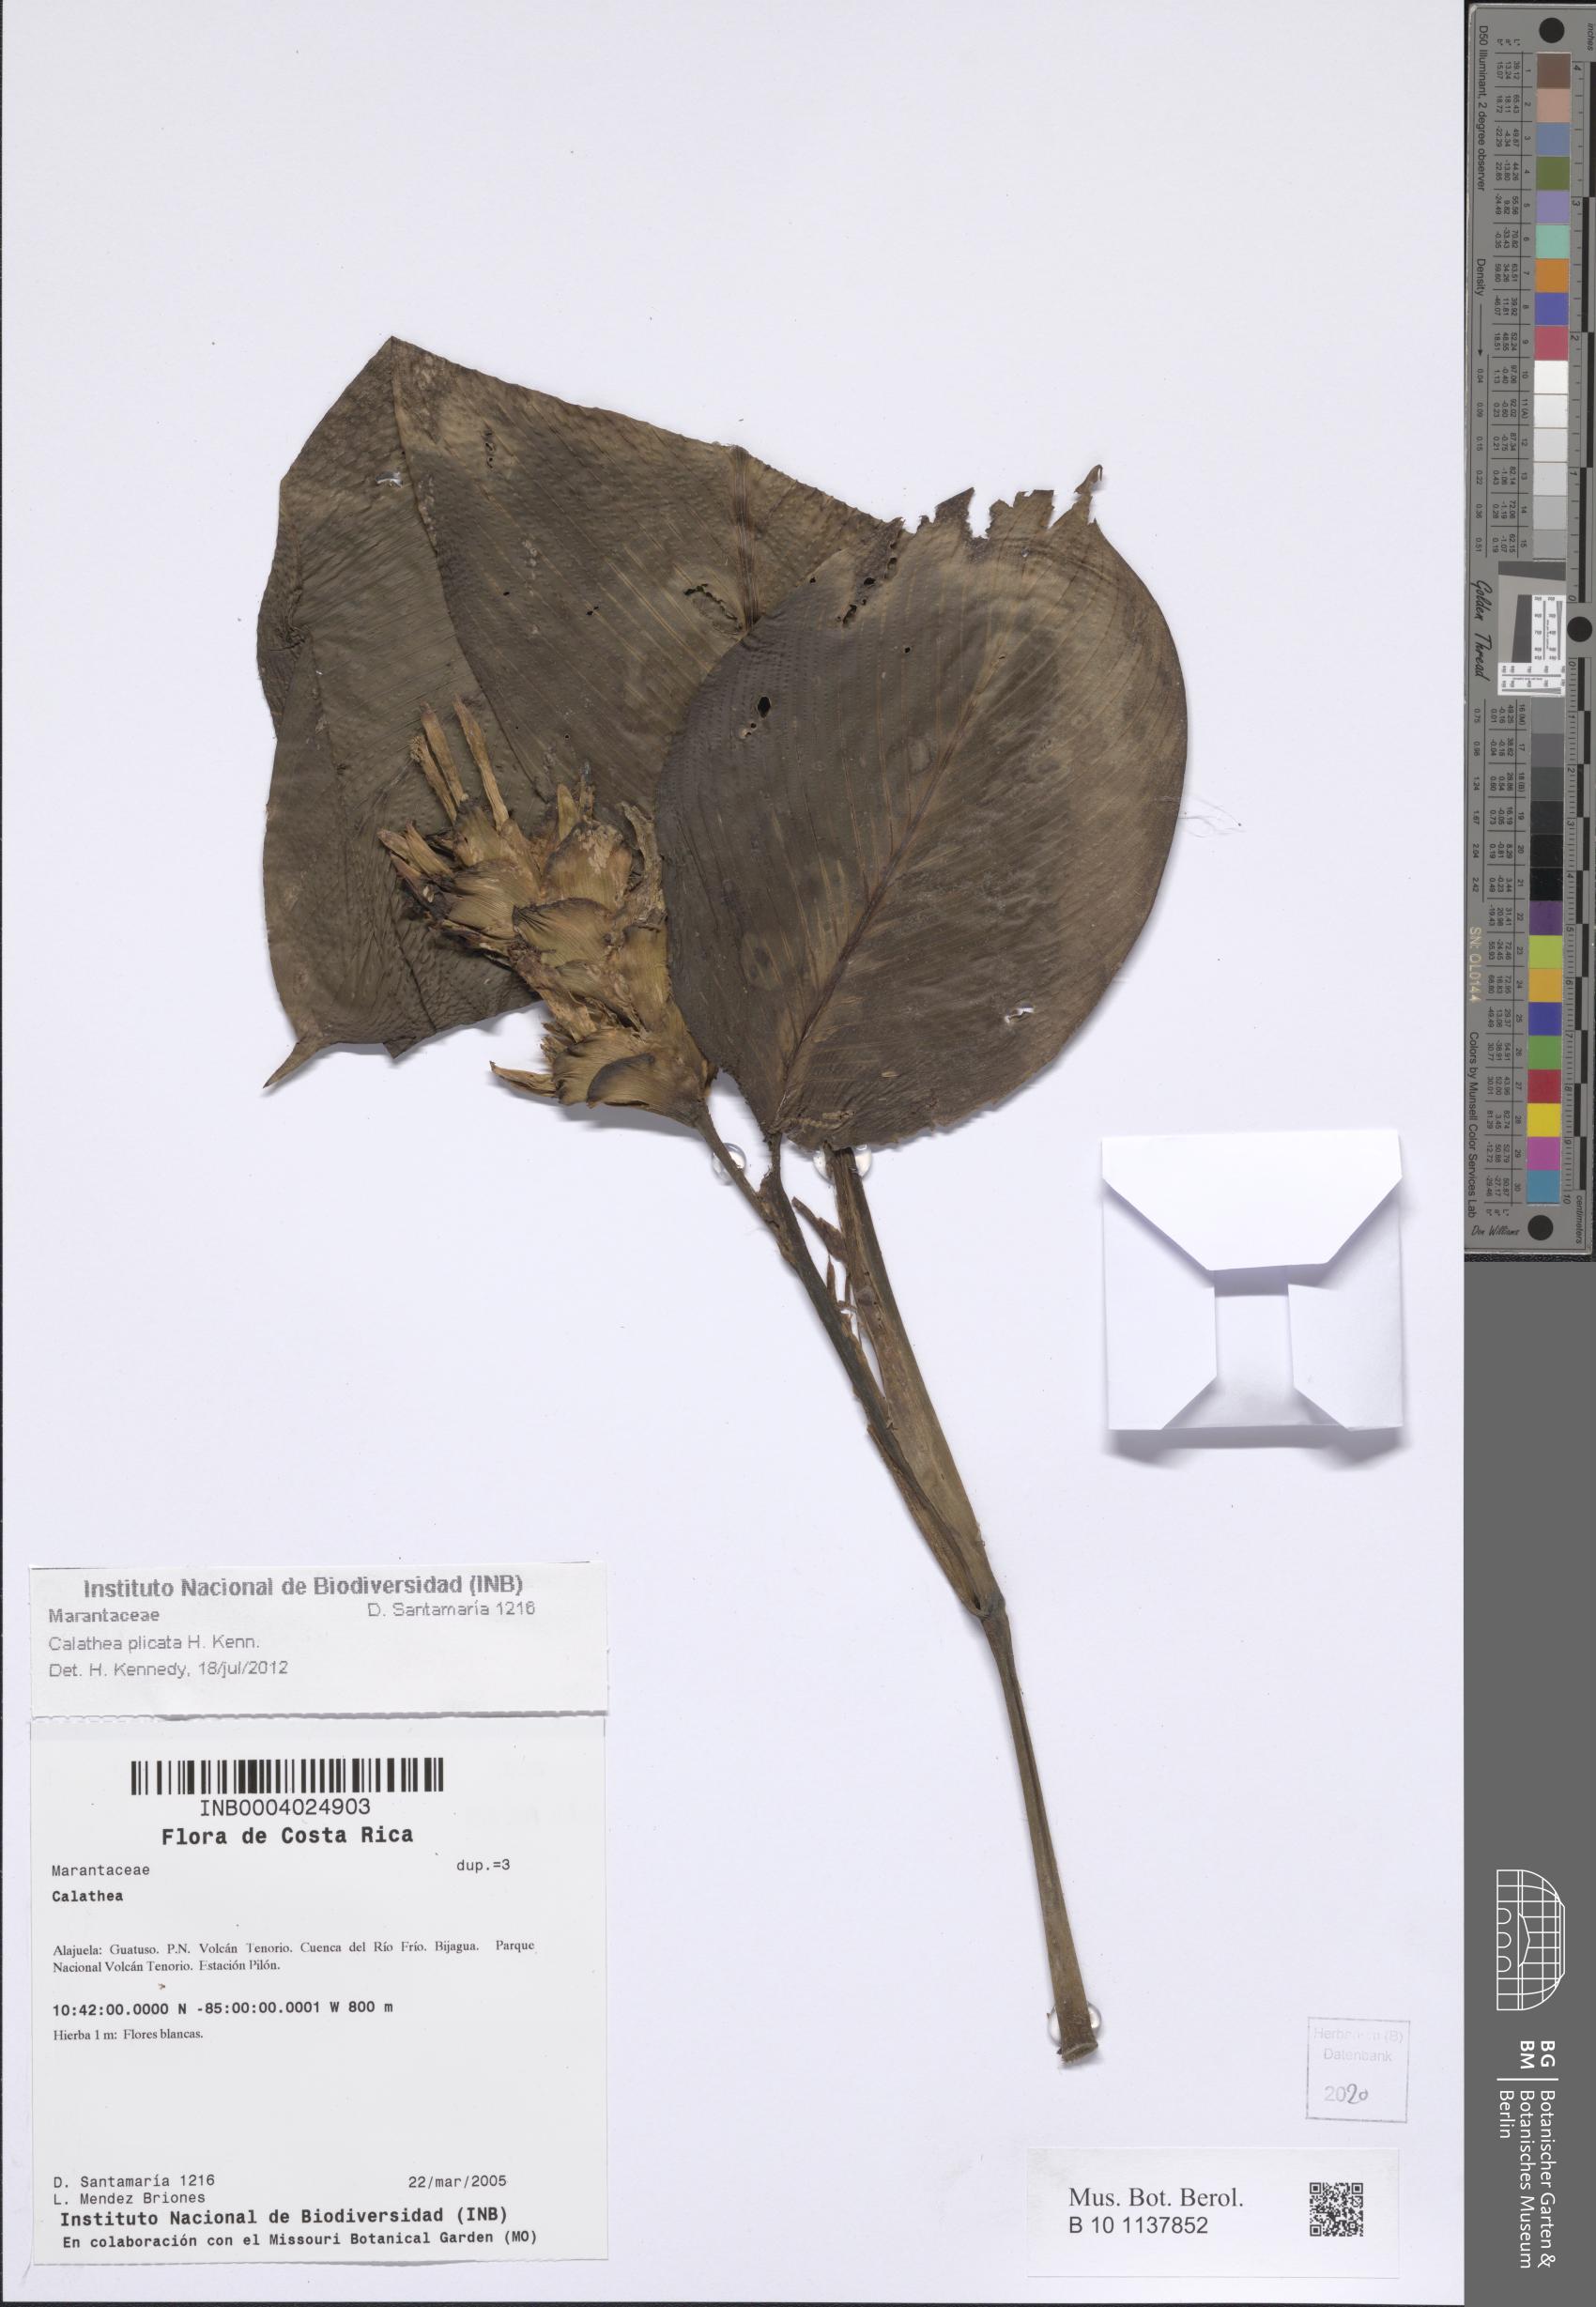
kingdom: Plantae
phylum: Tracheophyta
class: Liliopsida
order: Zingiberales
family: Marantaceae
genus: Goeppertia
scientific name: Goeppertia plicata
